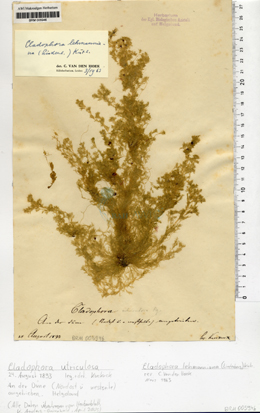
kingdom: Plantae
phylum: Chlorophyta
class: Ulvophyceae
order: Cladophorales
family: Cladophoraceae
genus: Cladophora
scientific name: Cladophora lehmanniana
